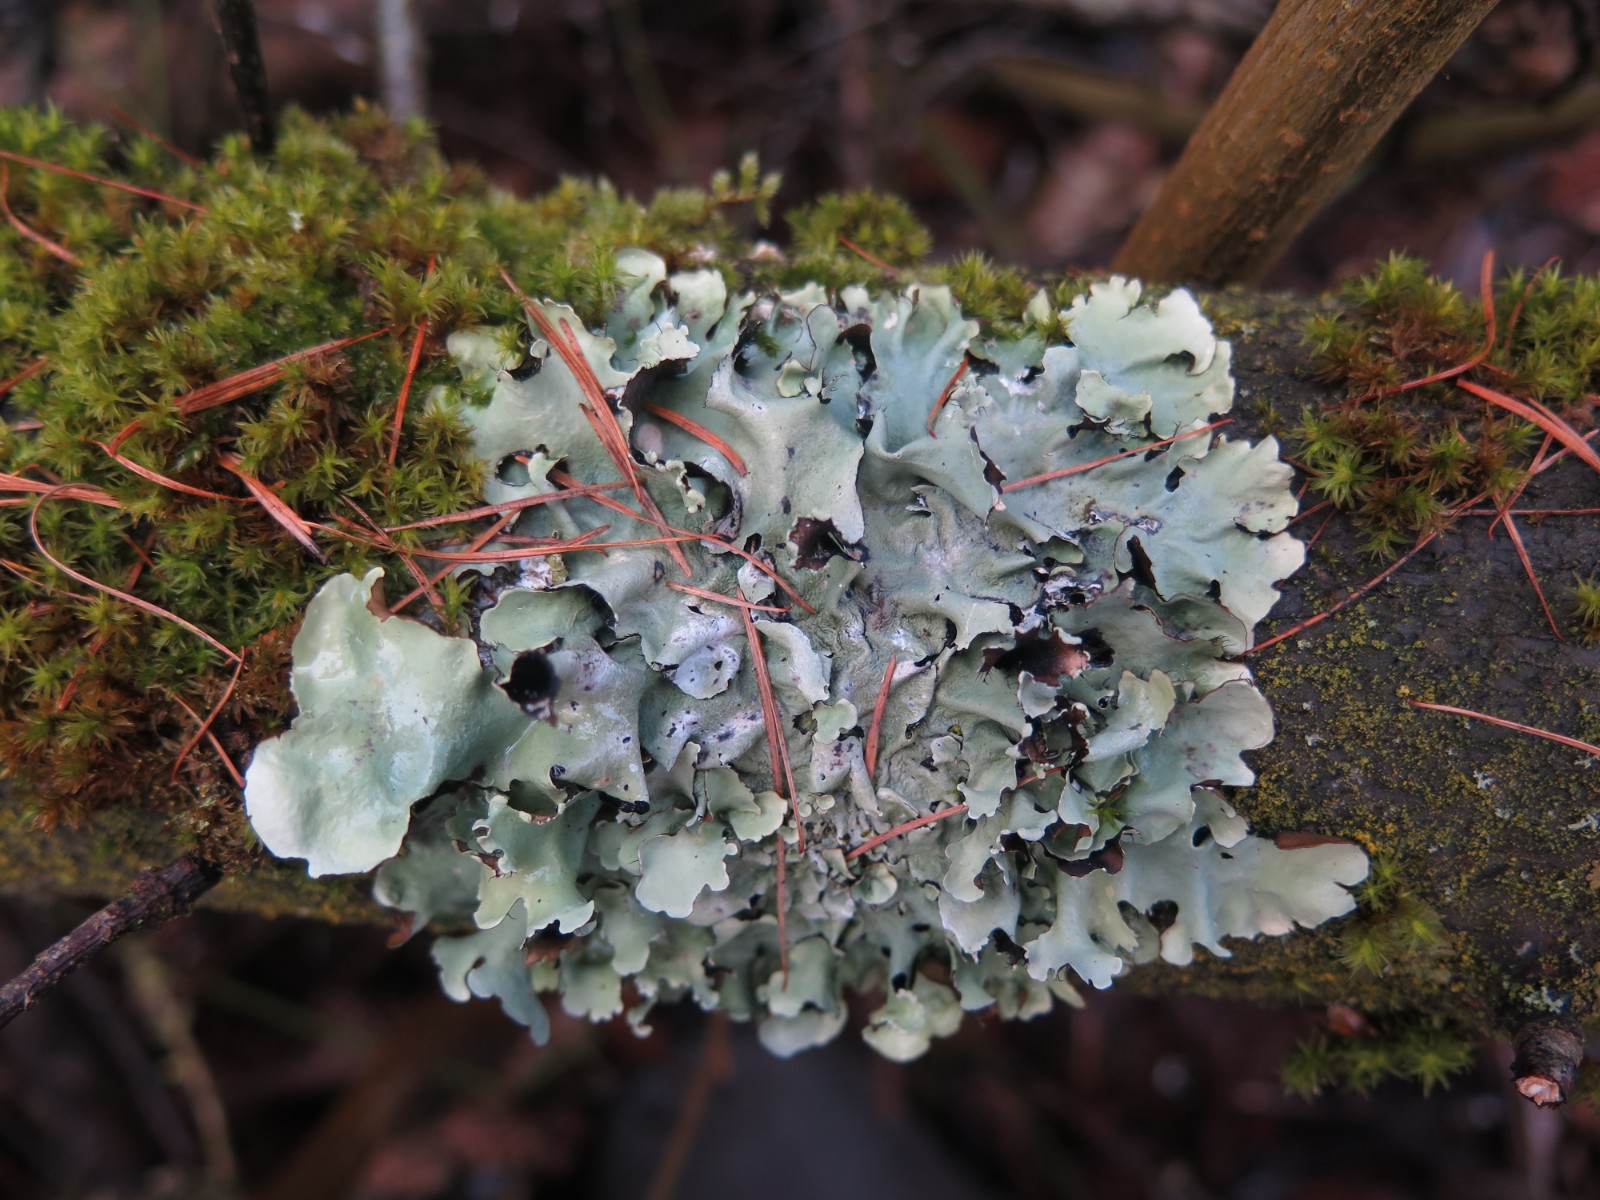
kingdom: Fungi
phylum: Ascomycota
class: Lecanoromycetes
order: Lecanorales
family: Parmeliaceae
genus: Parmotrema
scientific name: Parmotrema perlatum
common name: trådet skållav
